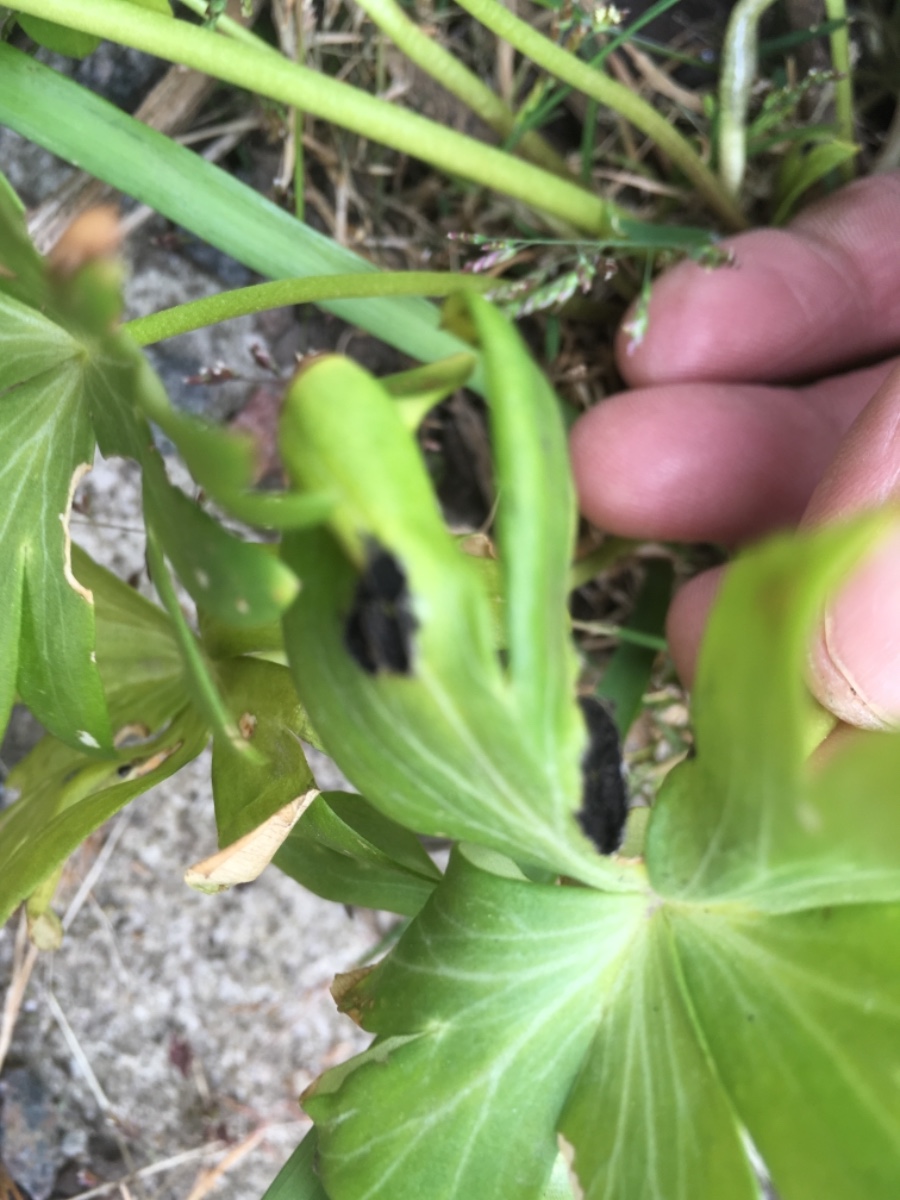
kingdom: Fungi
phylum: Basidiomycota
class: Ustilaginomycetes
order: Urocystidales
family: Urocystidaceae
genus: Urocystis
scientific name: Urocystis eranthidis
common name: erantis-brand
